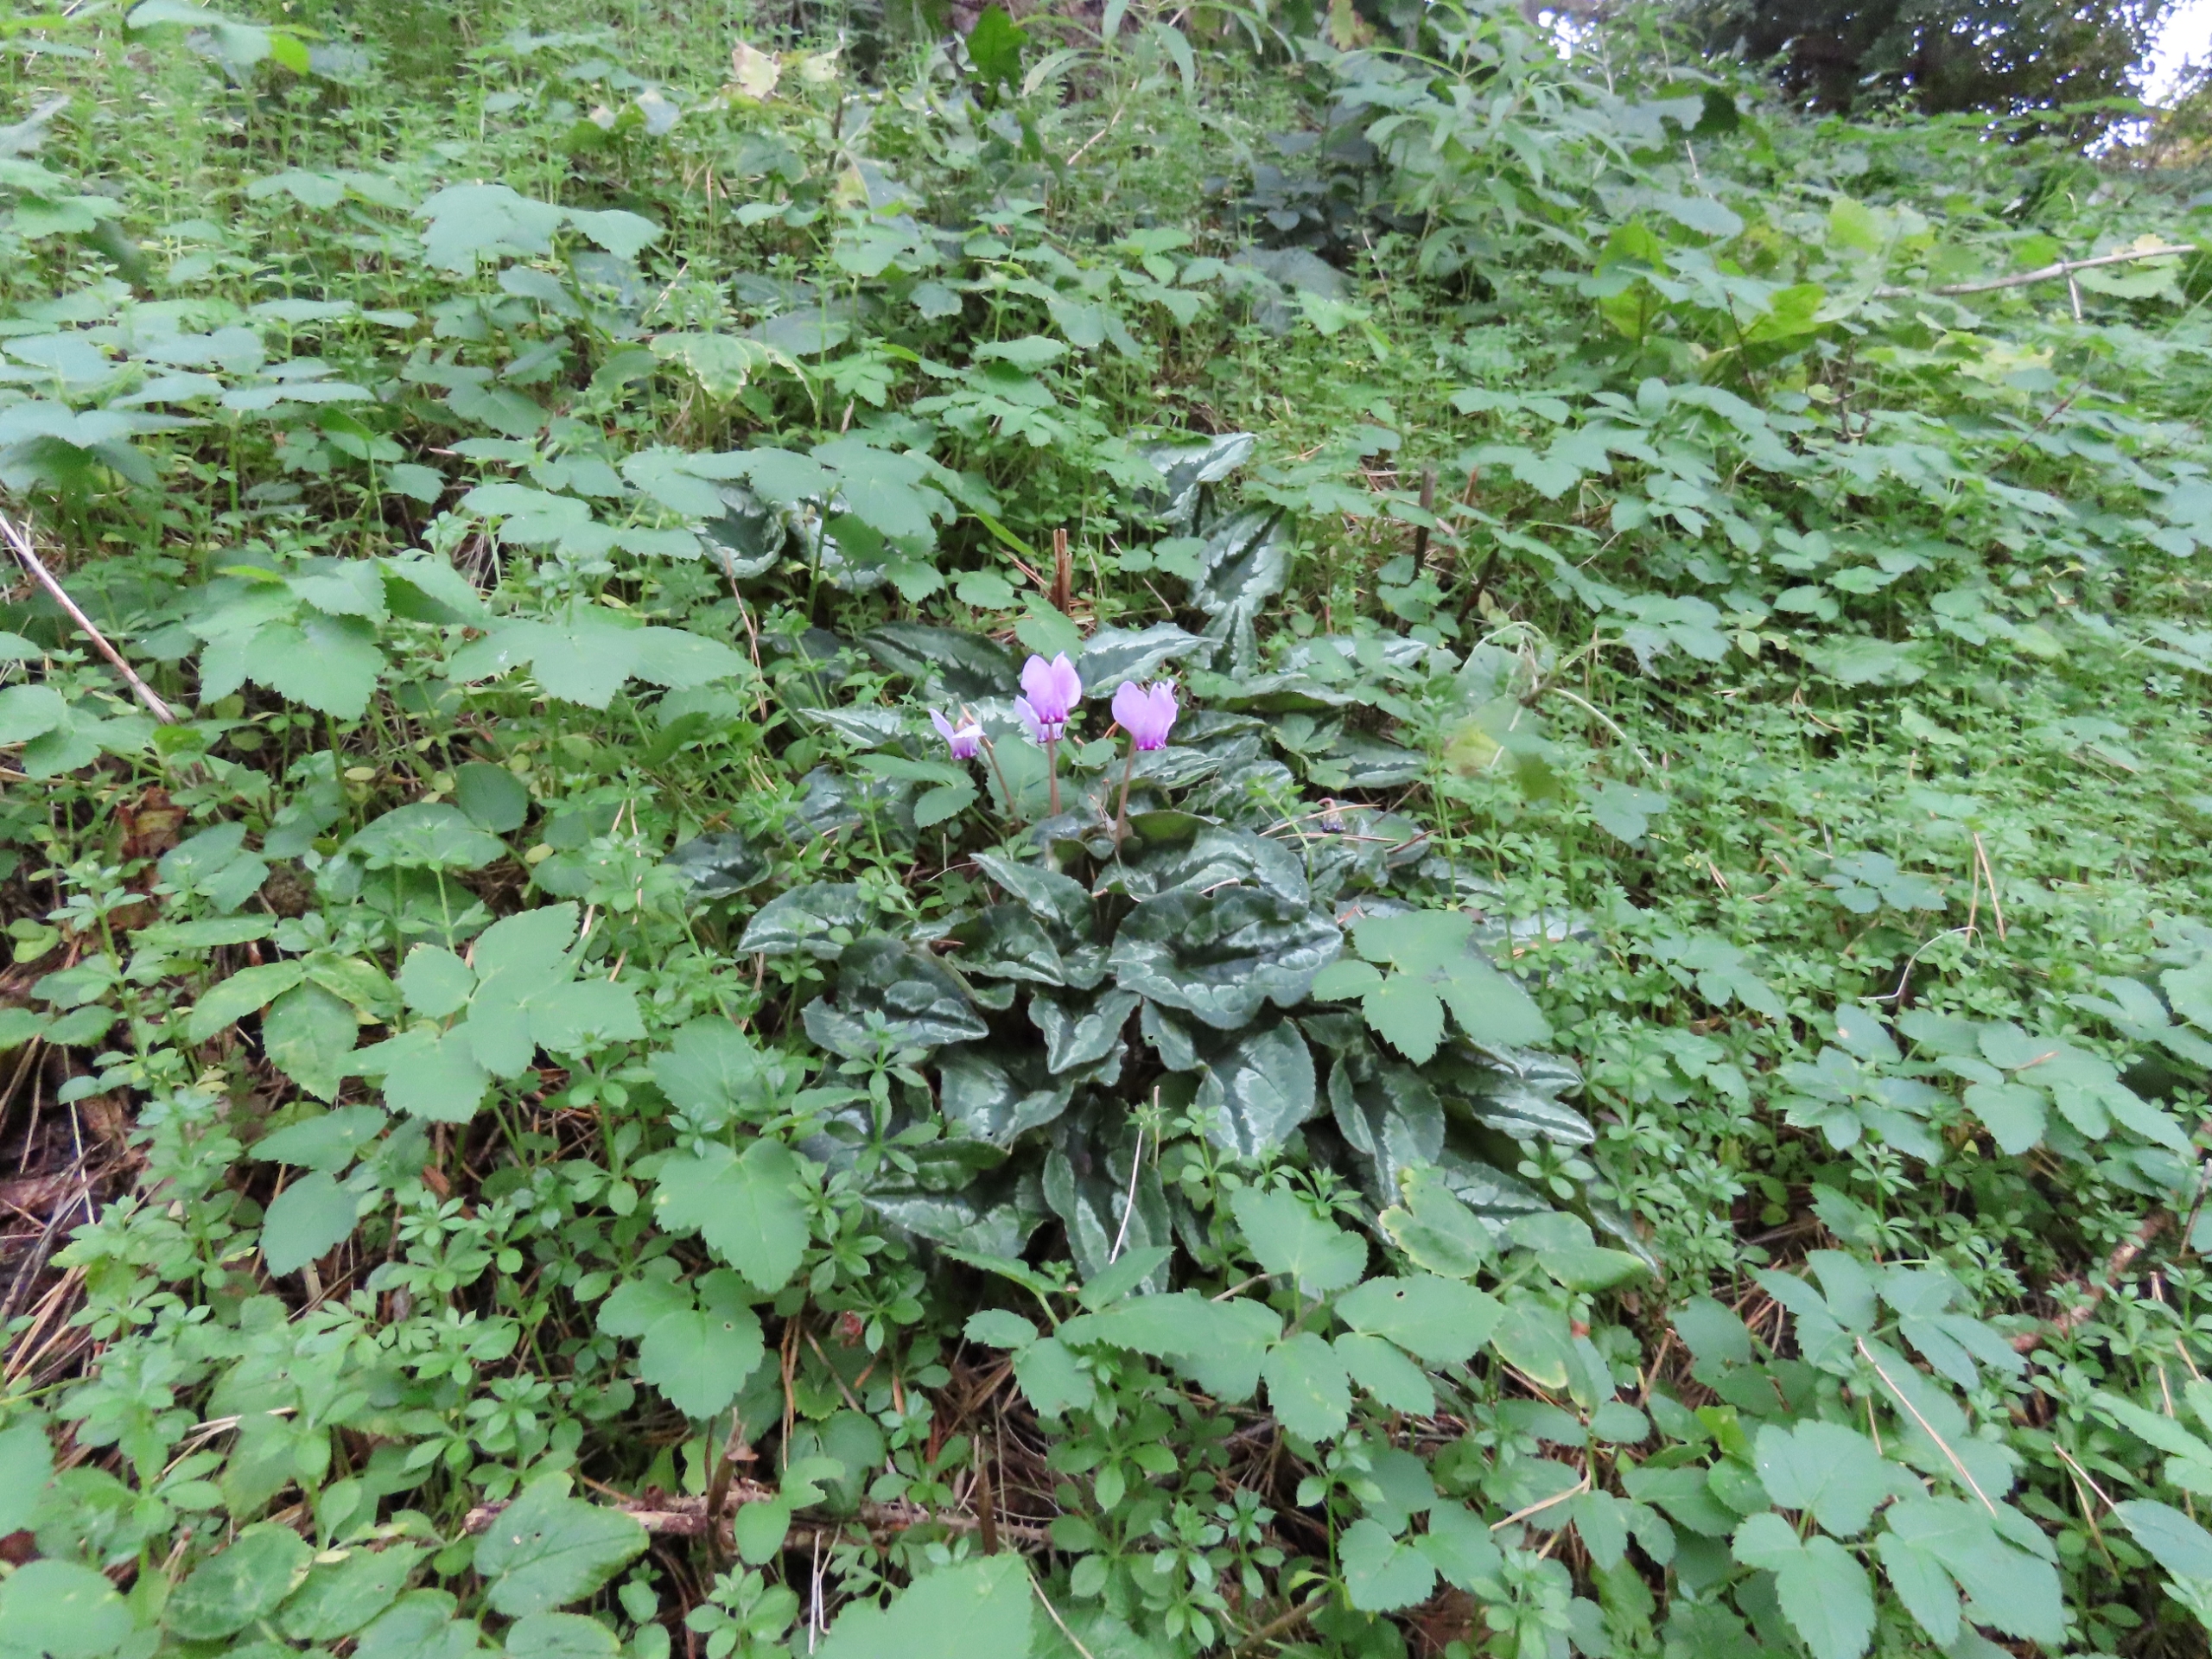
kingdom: Plantae
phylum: Tracheophyta
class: Magnoliopsida
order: Ericales
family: Primulaceae
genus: Cyclamen
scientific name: Cyclamen hederifolium
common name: Vedbendbladet alpeviol
